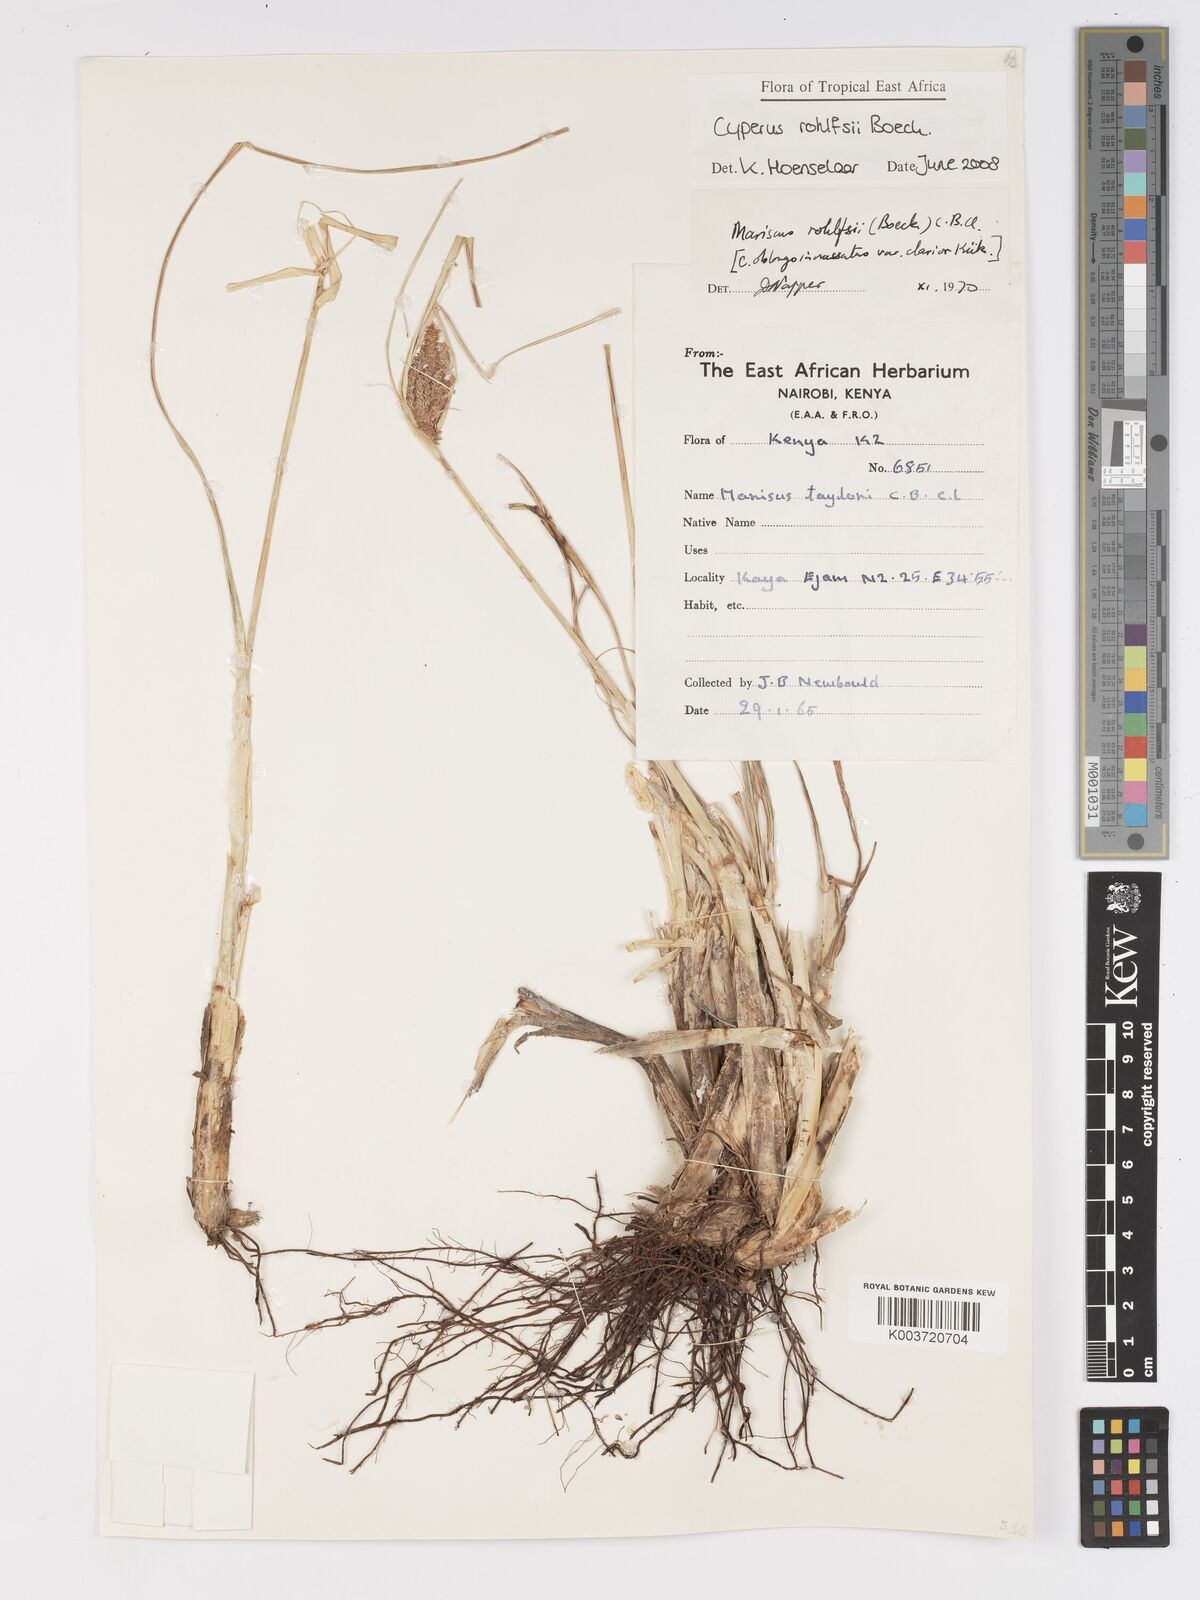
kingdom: Plantae
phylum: Tracheophyta
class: Liliopsida
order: Poales
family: Cyperaceae
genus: Cyperus
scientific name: Cyperus rohlfsii
